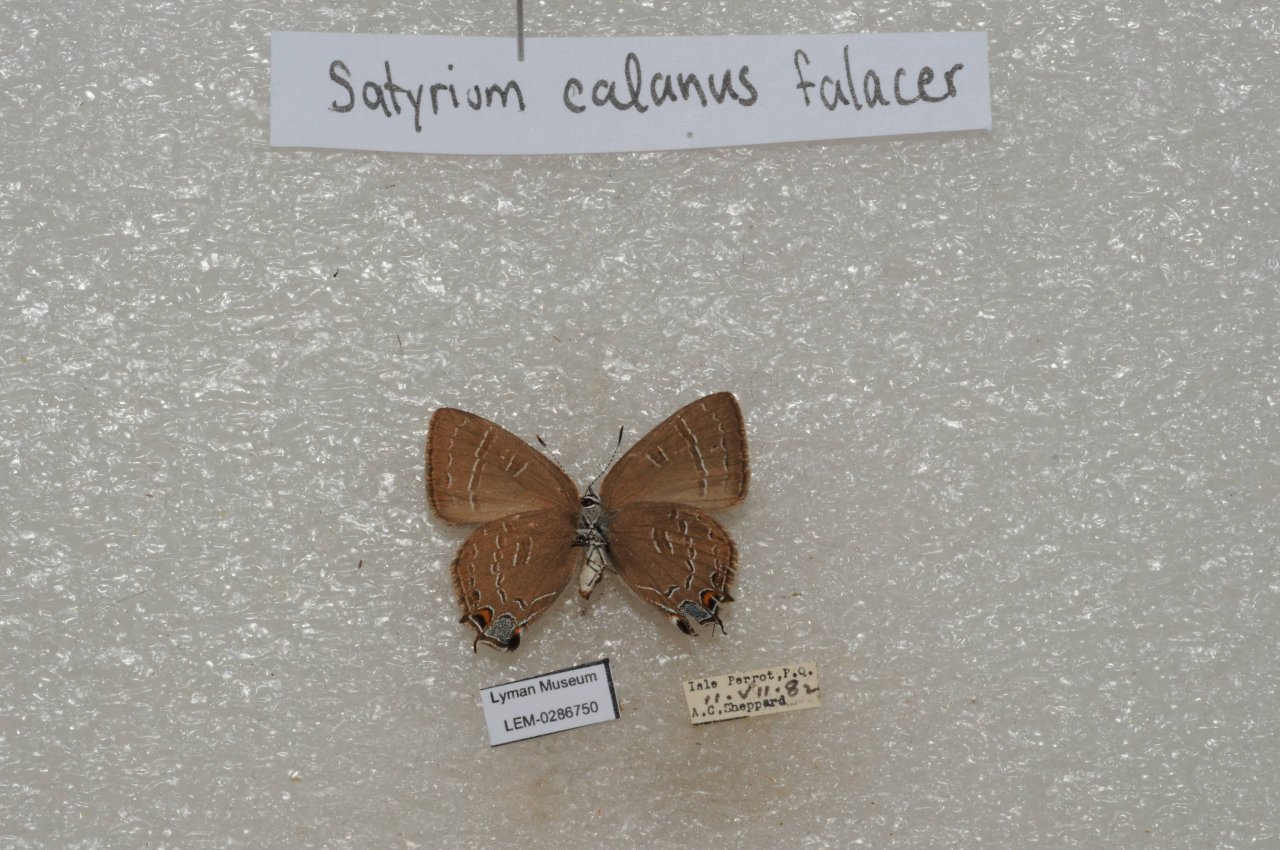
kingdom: Animalia
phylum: Arthropoda
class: Insecta
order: Lepidoptera
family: Lycaenidae
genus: Satyrium
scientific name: Satyrium calanus
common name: Banded Hairstreak
